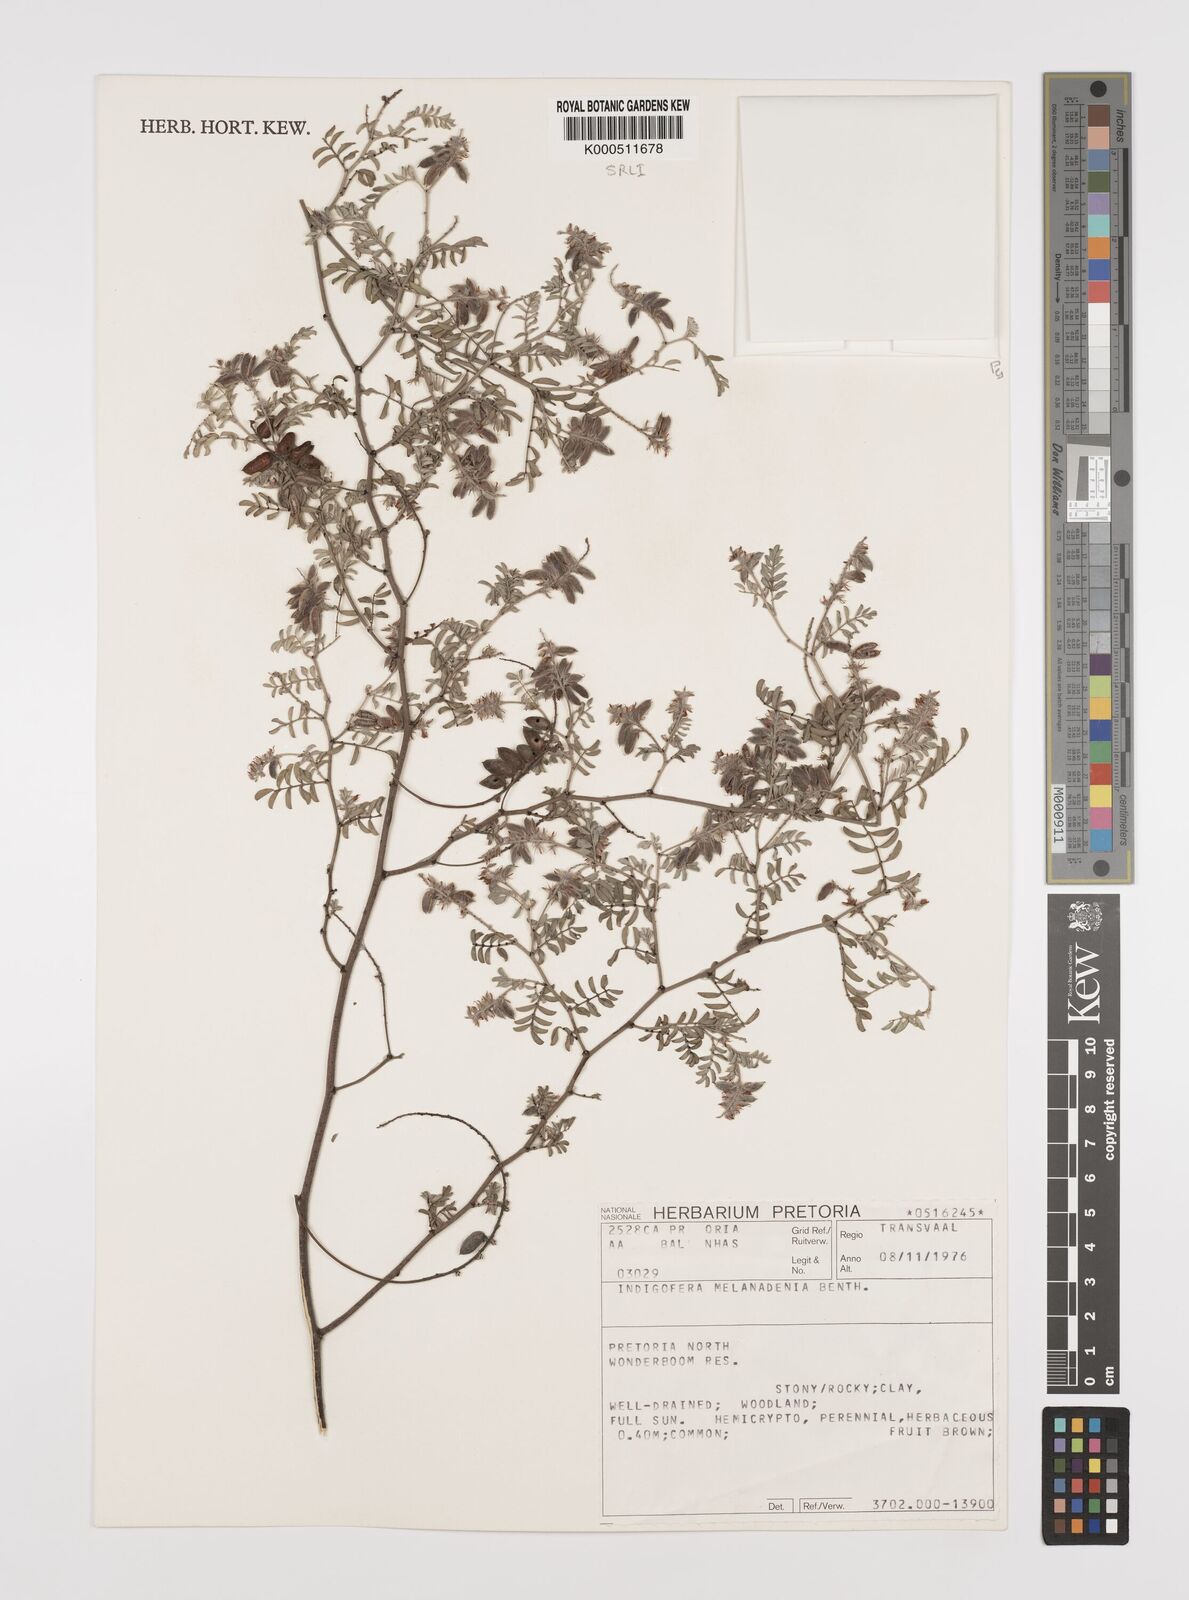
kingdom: Plantae
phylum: Tracheophyta
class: Magnoliopsida
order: Fabales
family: Fabaceae
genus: Indigofera
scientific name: Indigofera melanadenia
